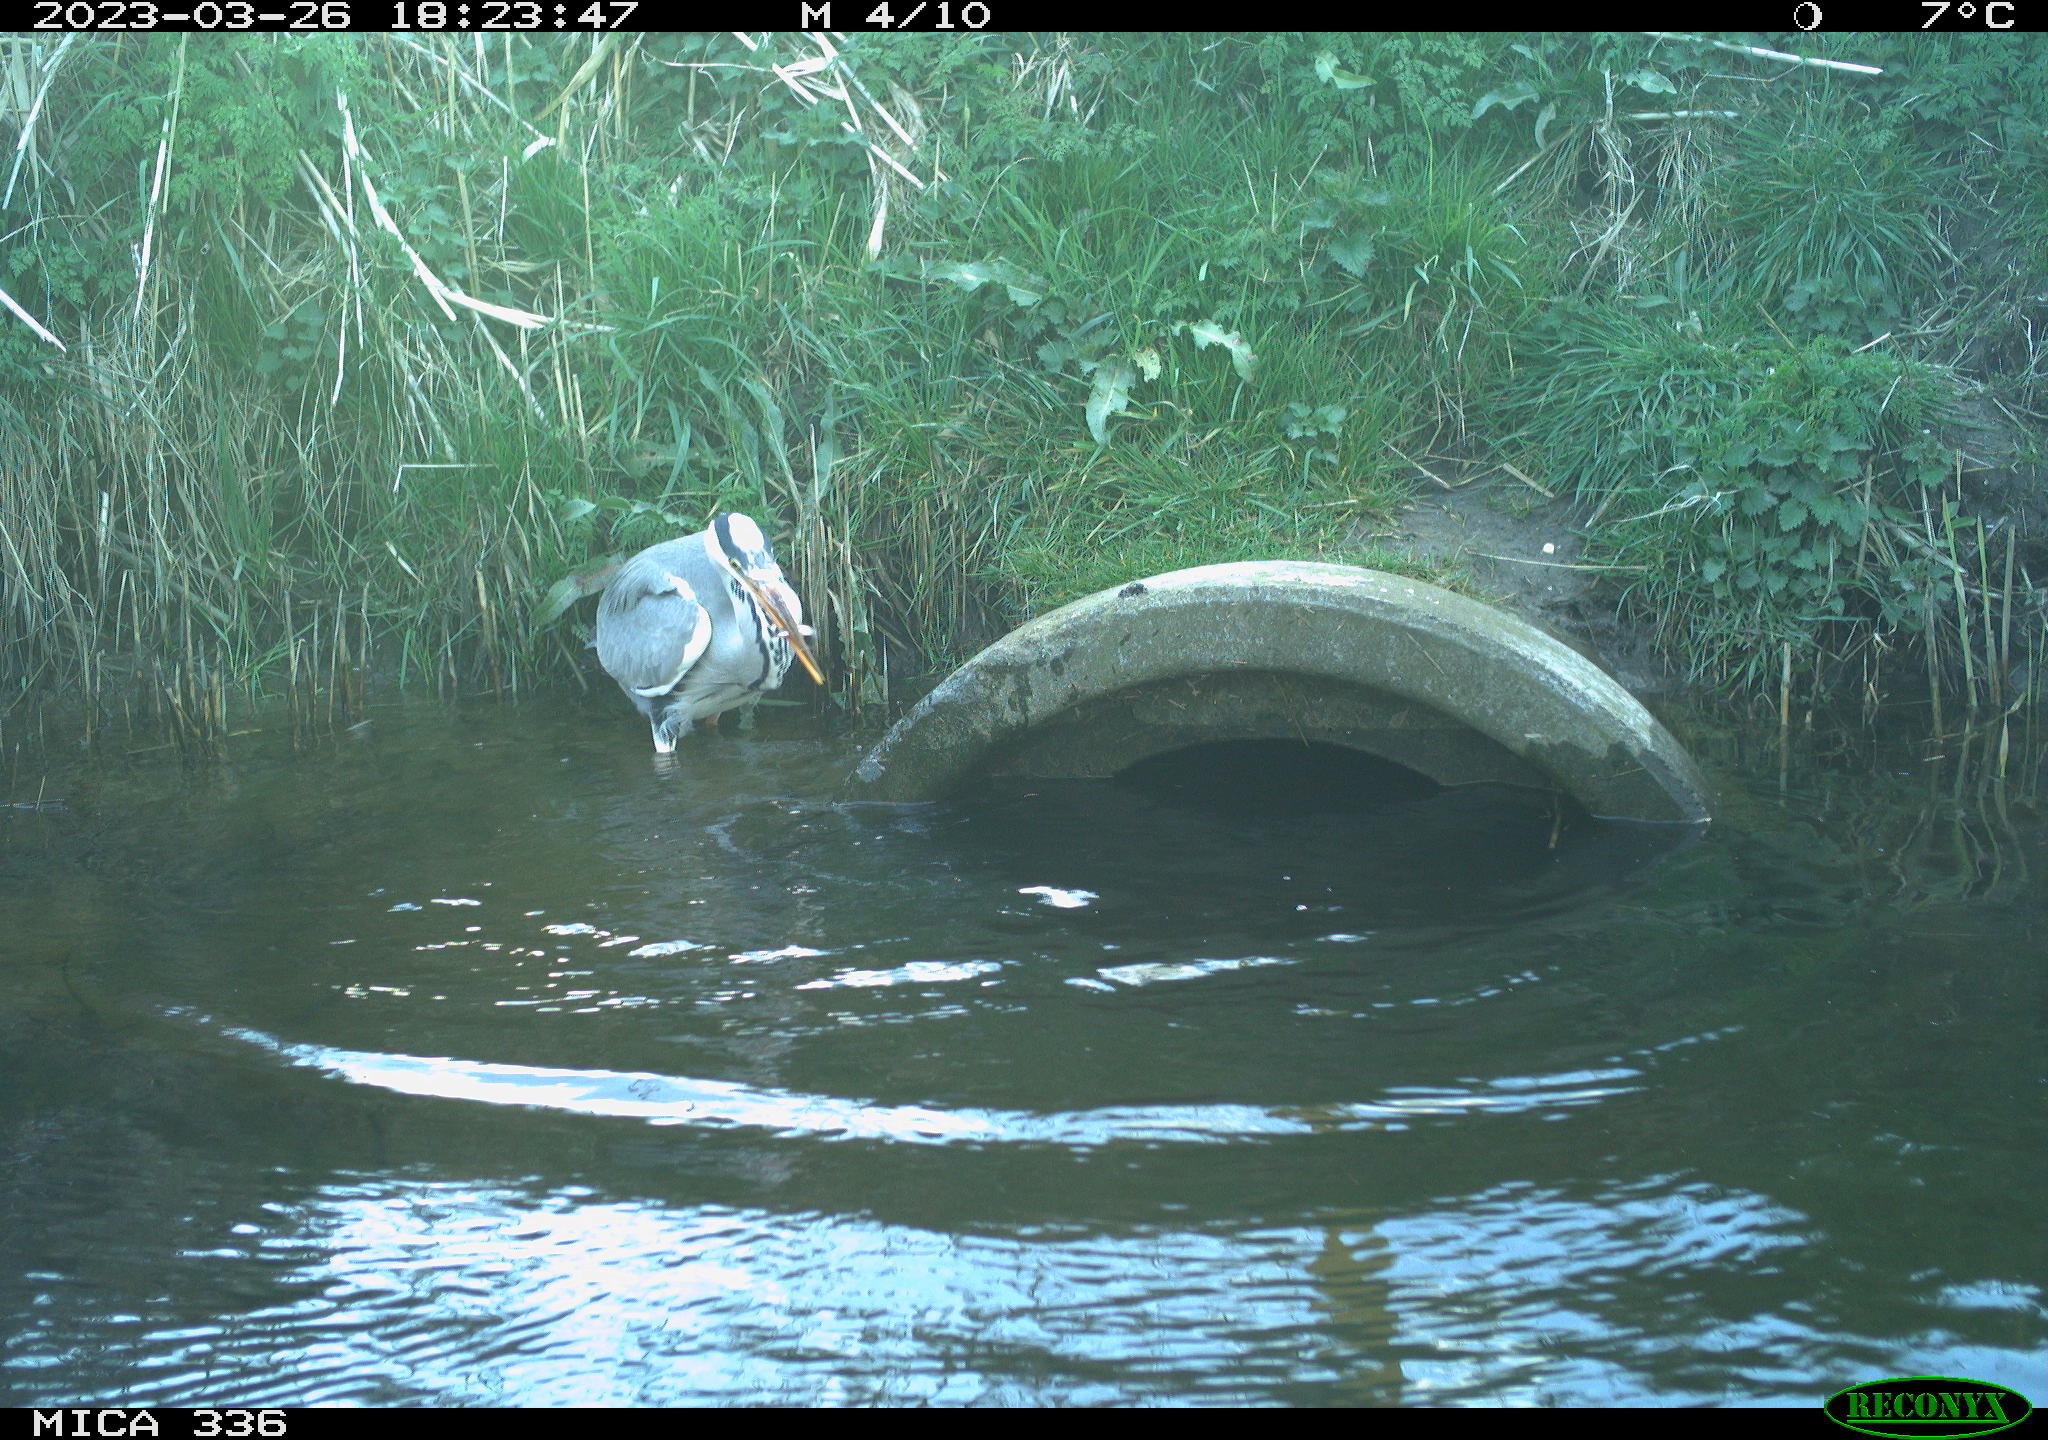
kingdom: Animalia
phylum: Chordata
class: Aves
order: Pelecaniformes
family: Ardeidae
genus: Ardea
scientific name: Ardea
